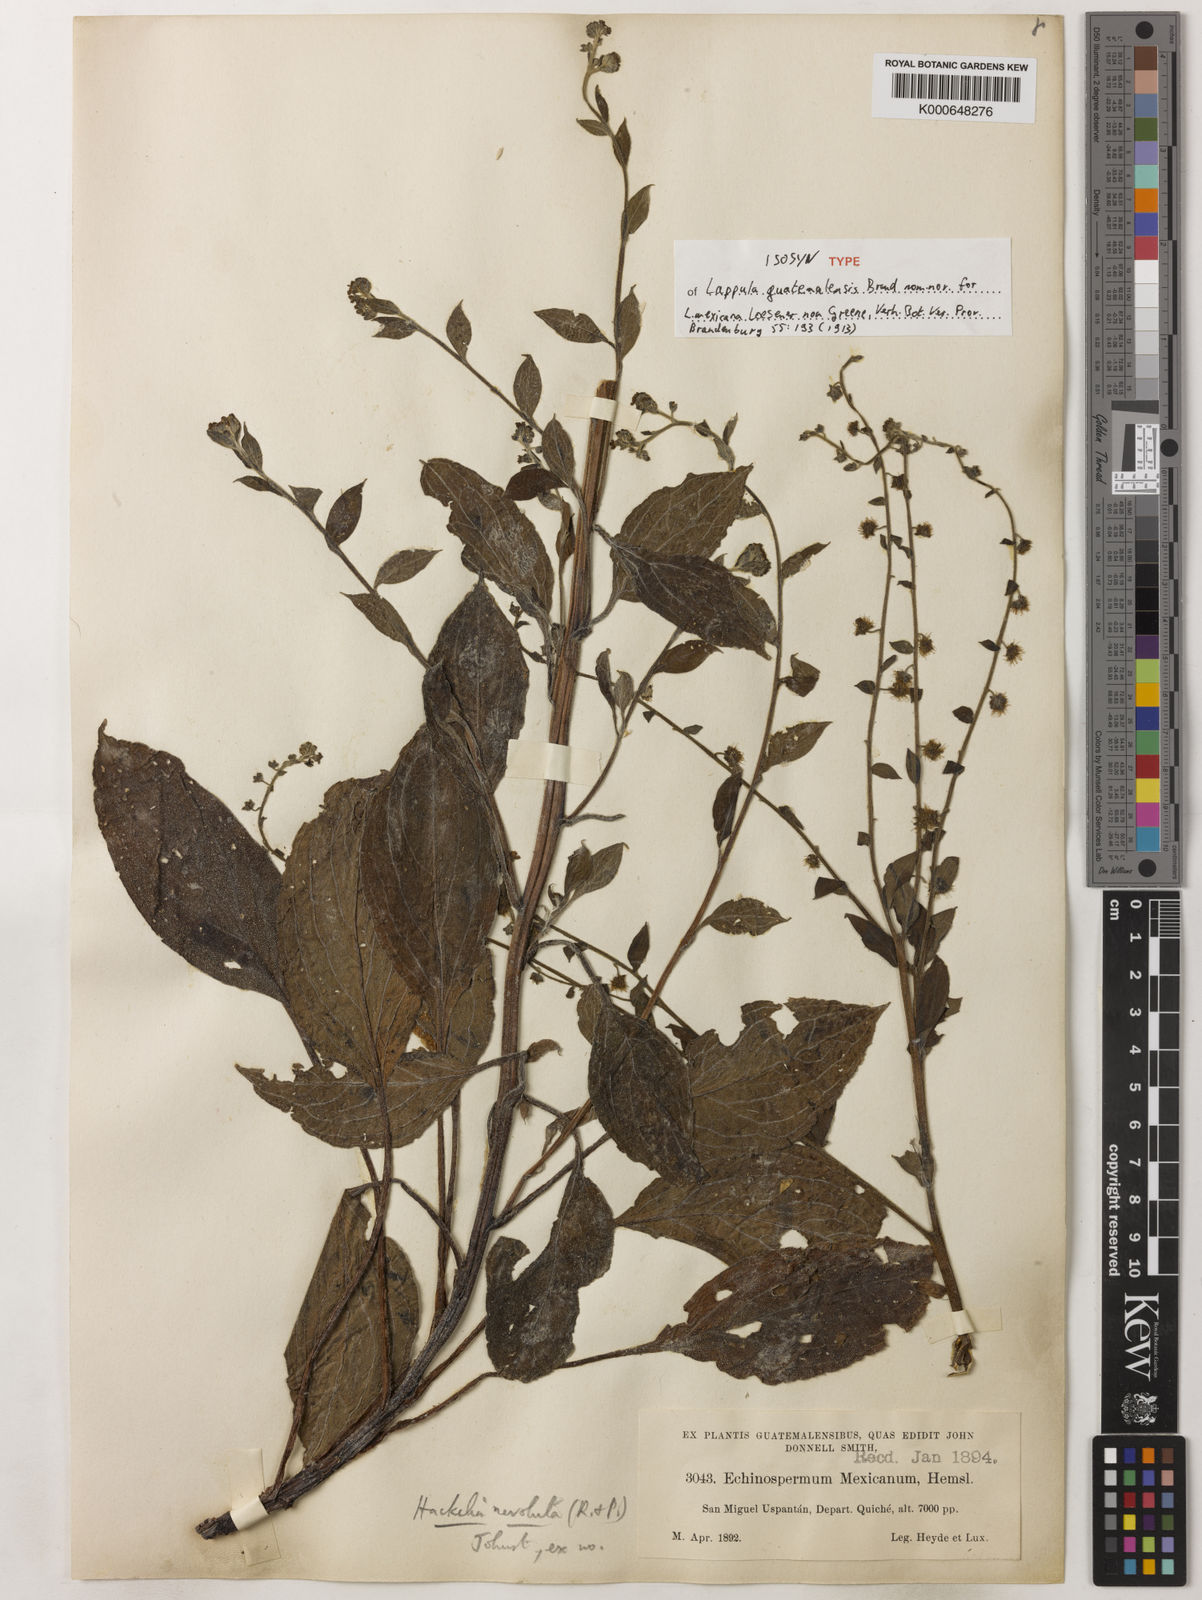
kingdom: Plantae
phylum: Tracheophyta
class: Magnoliopsida
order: Boraginales
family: Boraginaceae
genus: Hackelia
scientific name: Hackelia mexicana
